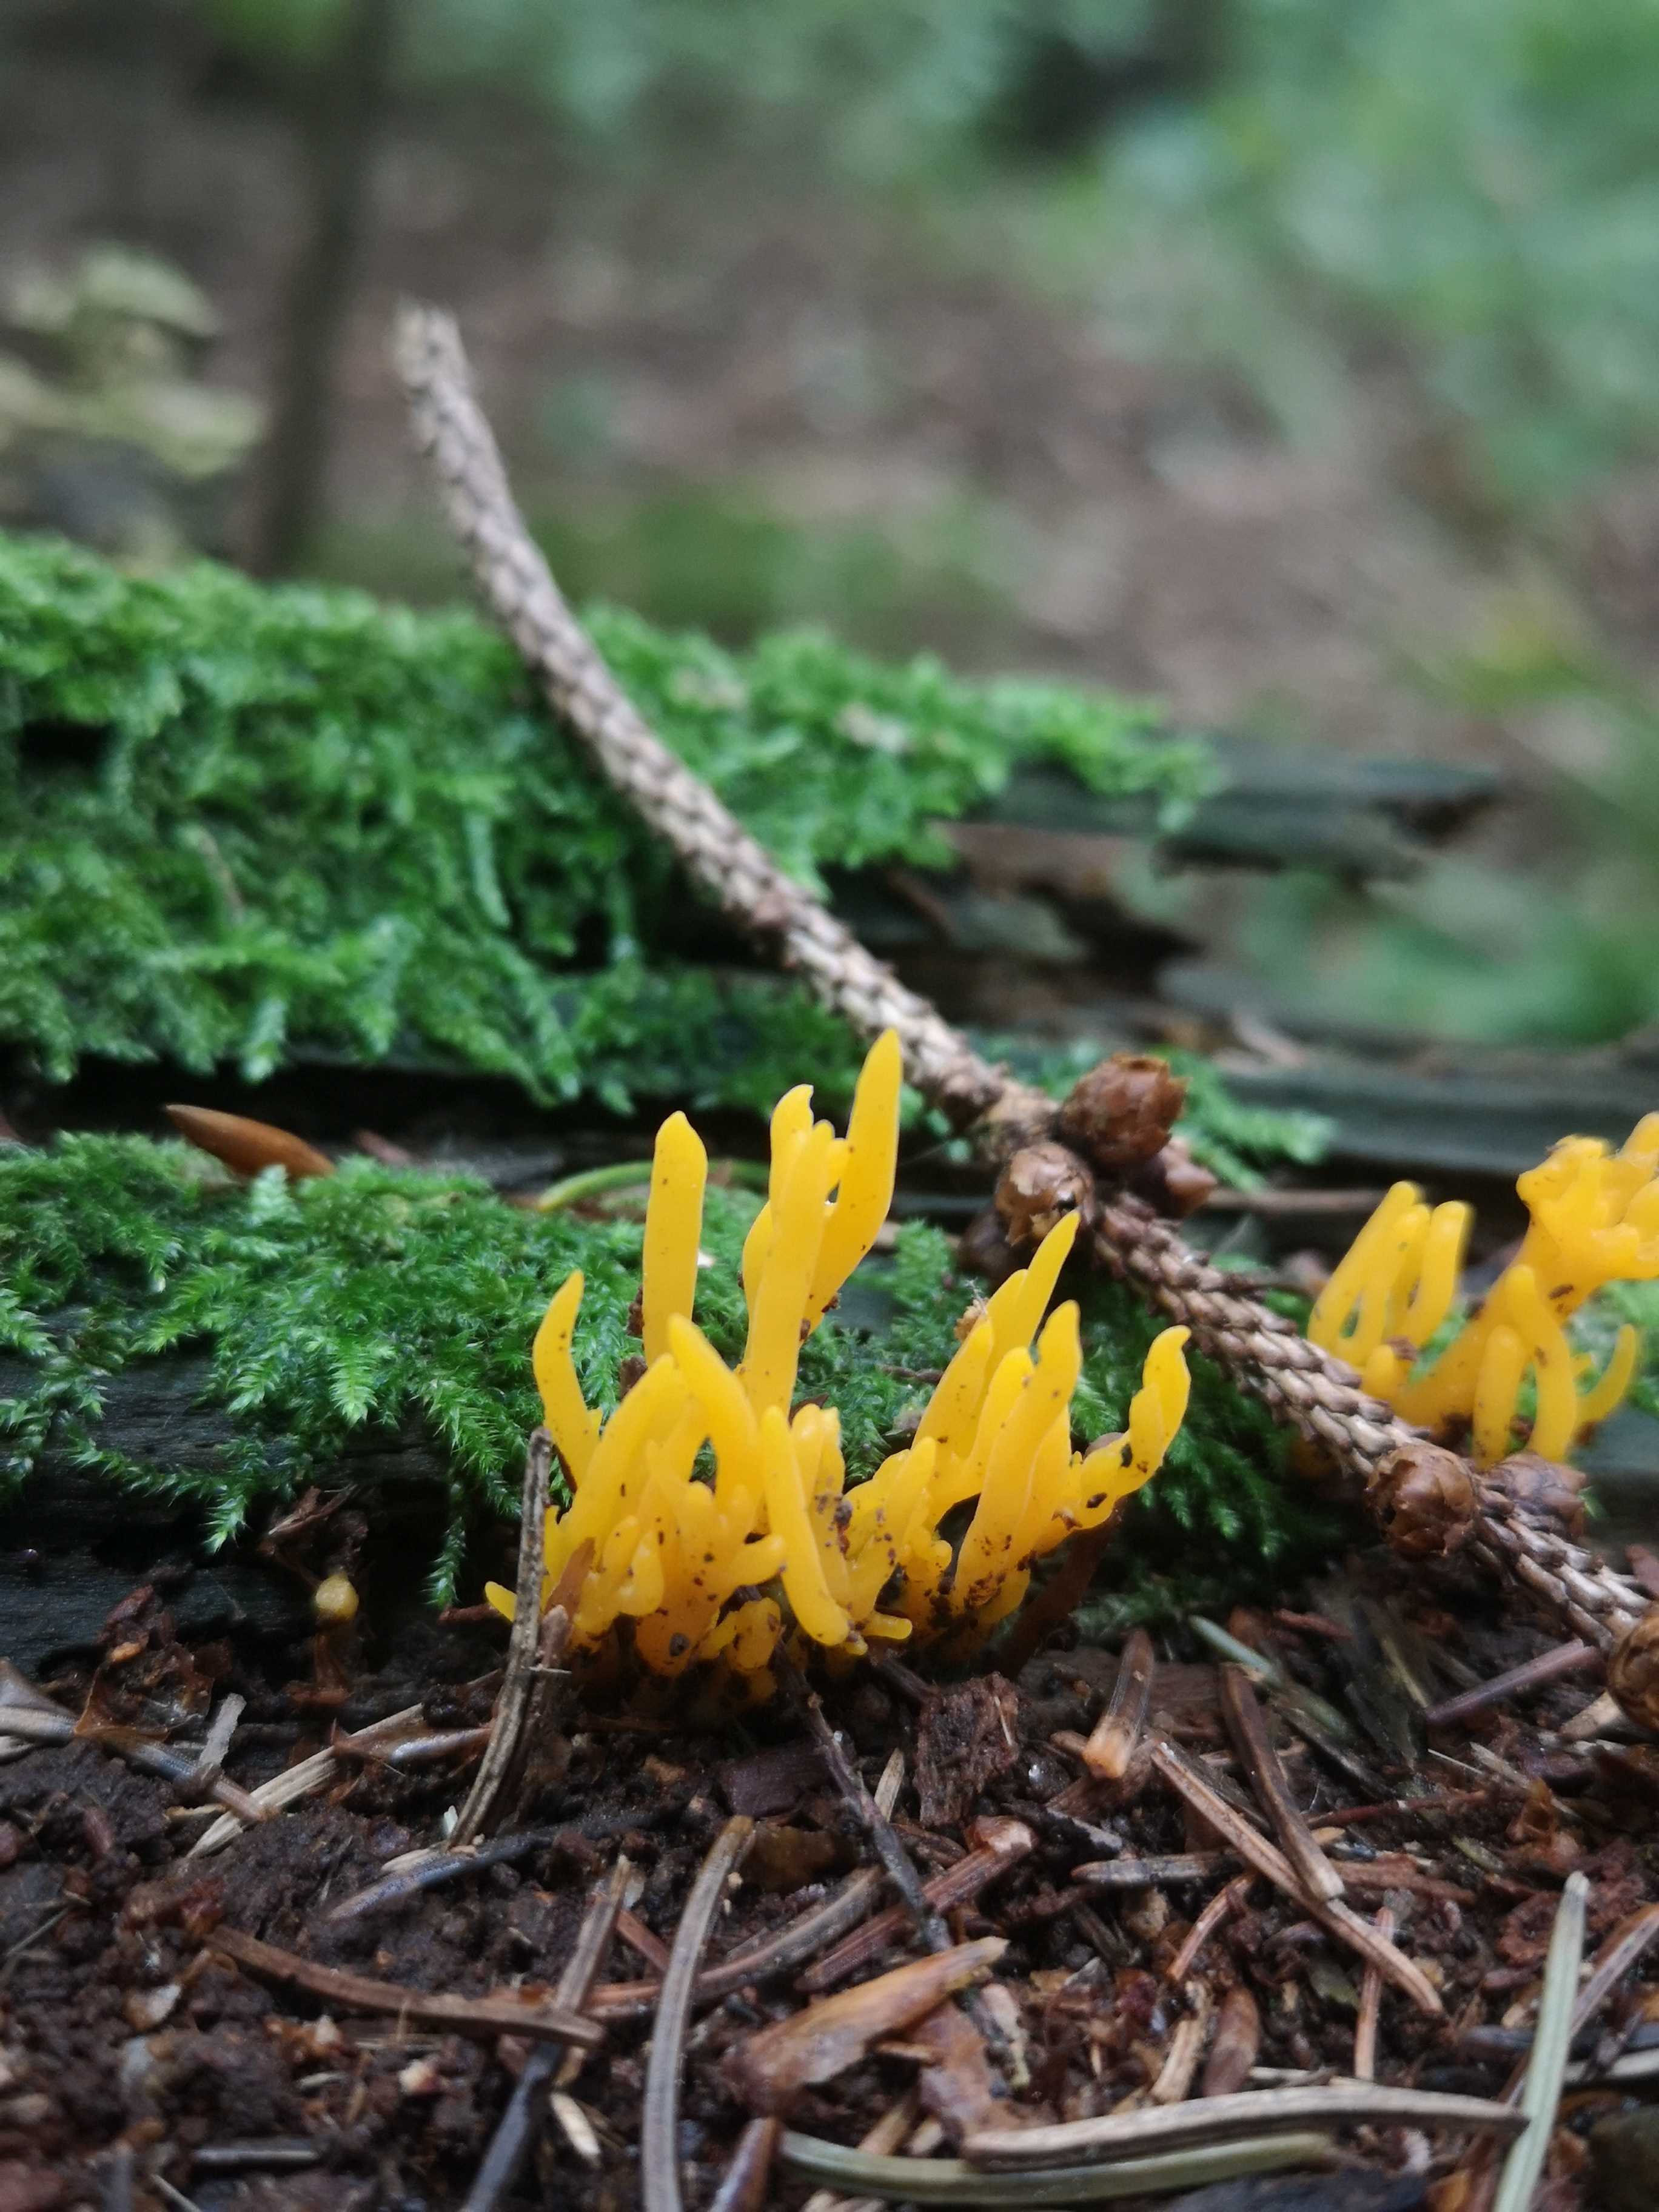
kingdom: Fungi
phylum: Basidiomycota
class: Dacrymycetes
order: Dacrymycetales
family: Dacrymycetaceae
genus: Calocera
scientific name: Calocera viscosa
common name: almindelig guldgaffel
